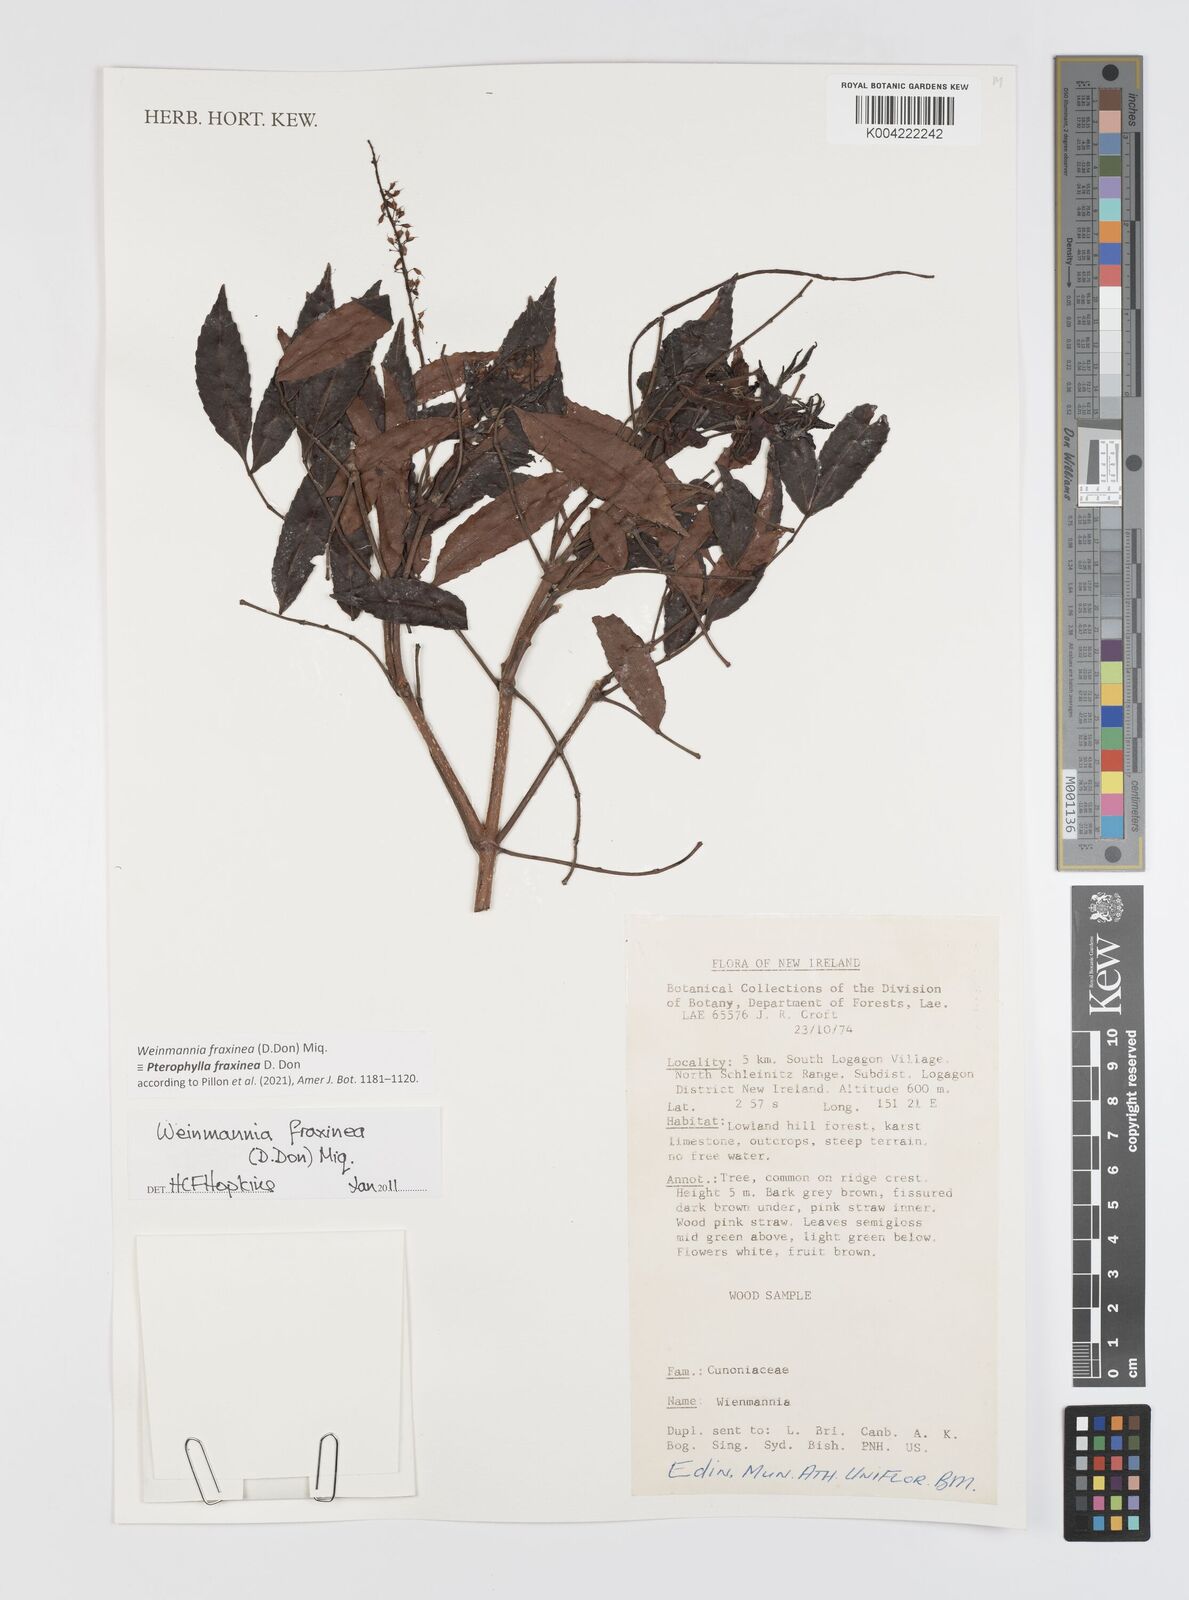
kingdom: Plantae
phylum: Tracheophyta
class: Magnoliopsida
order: Oxalidales
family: Cunoniaceae
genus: Pterophylla
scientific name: Pterophylla fraxinea
